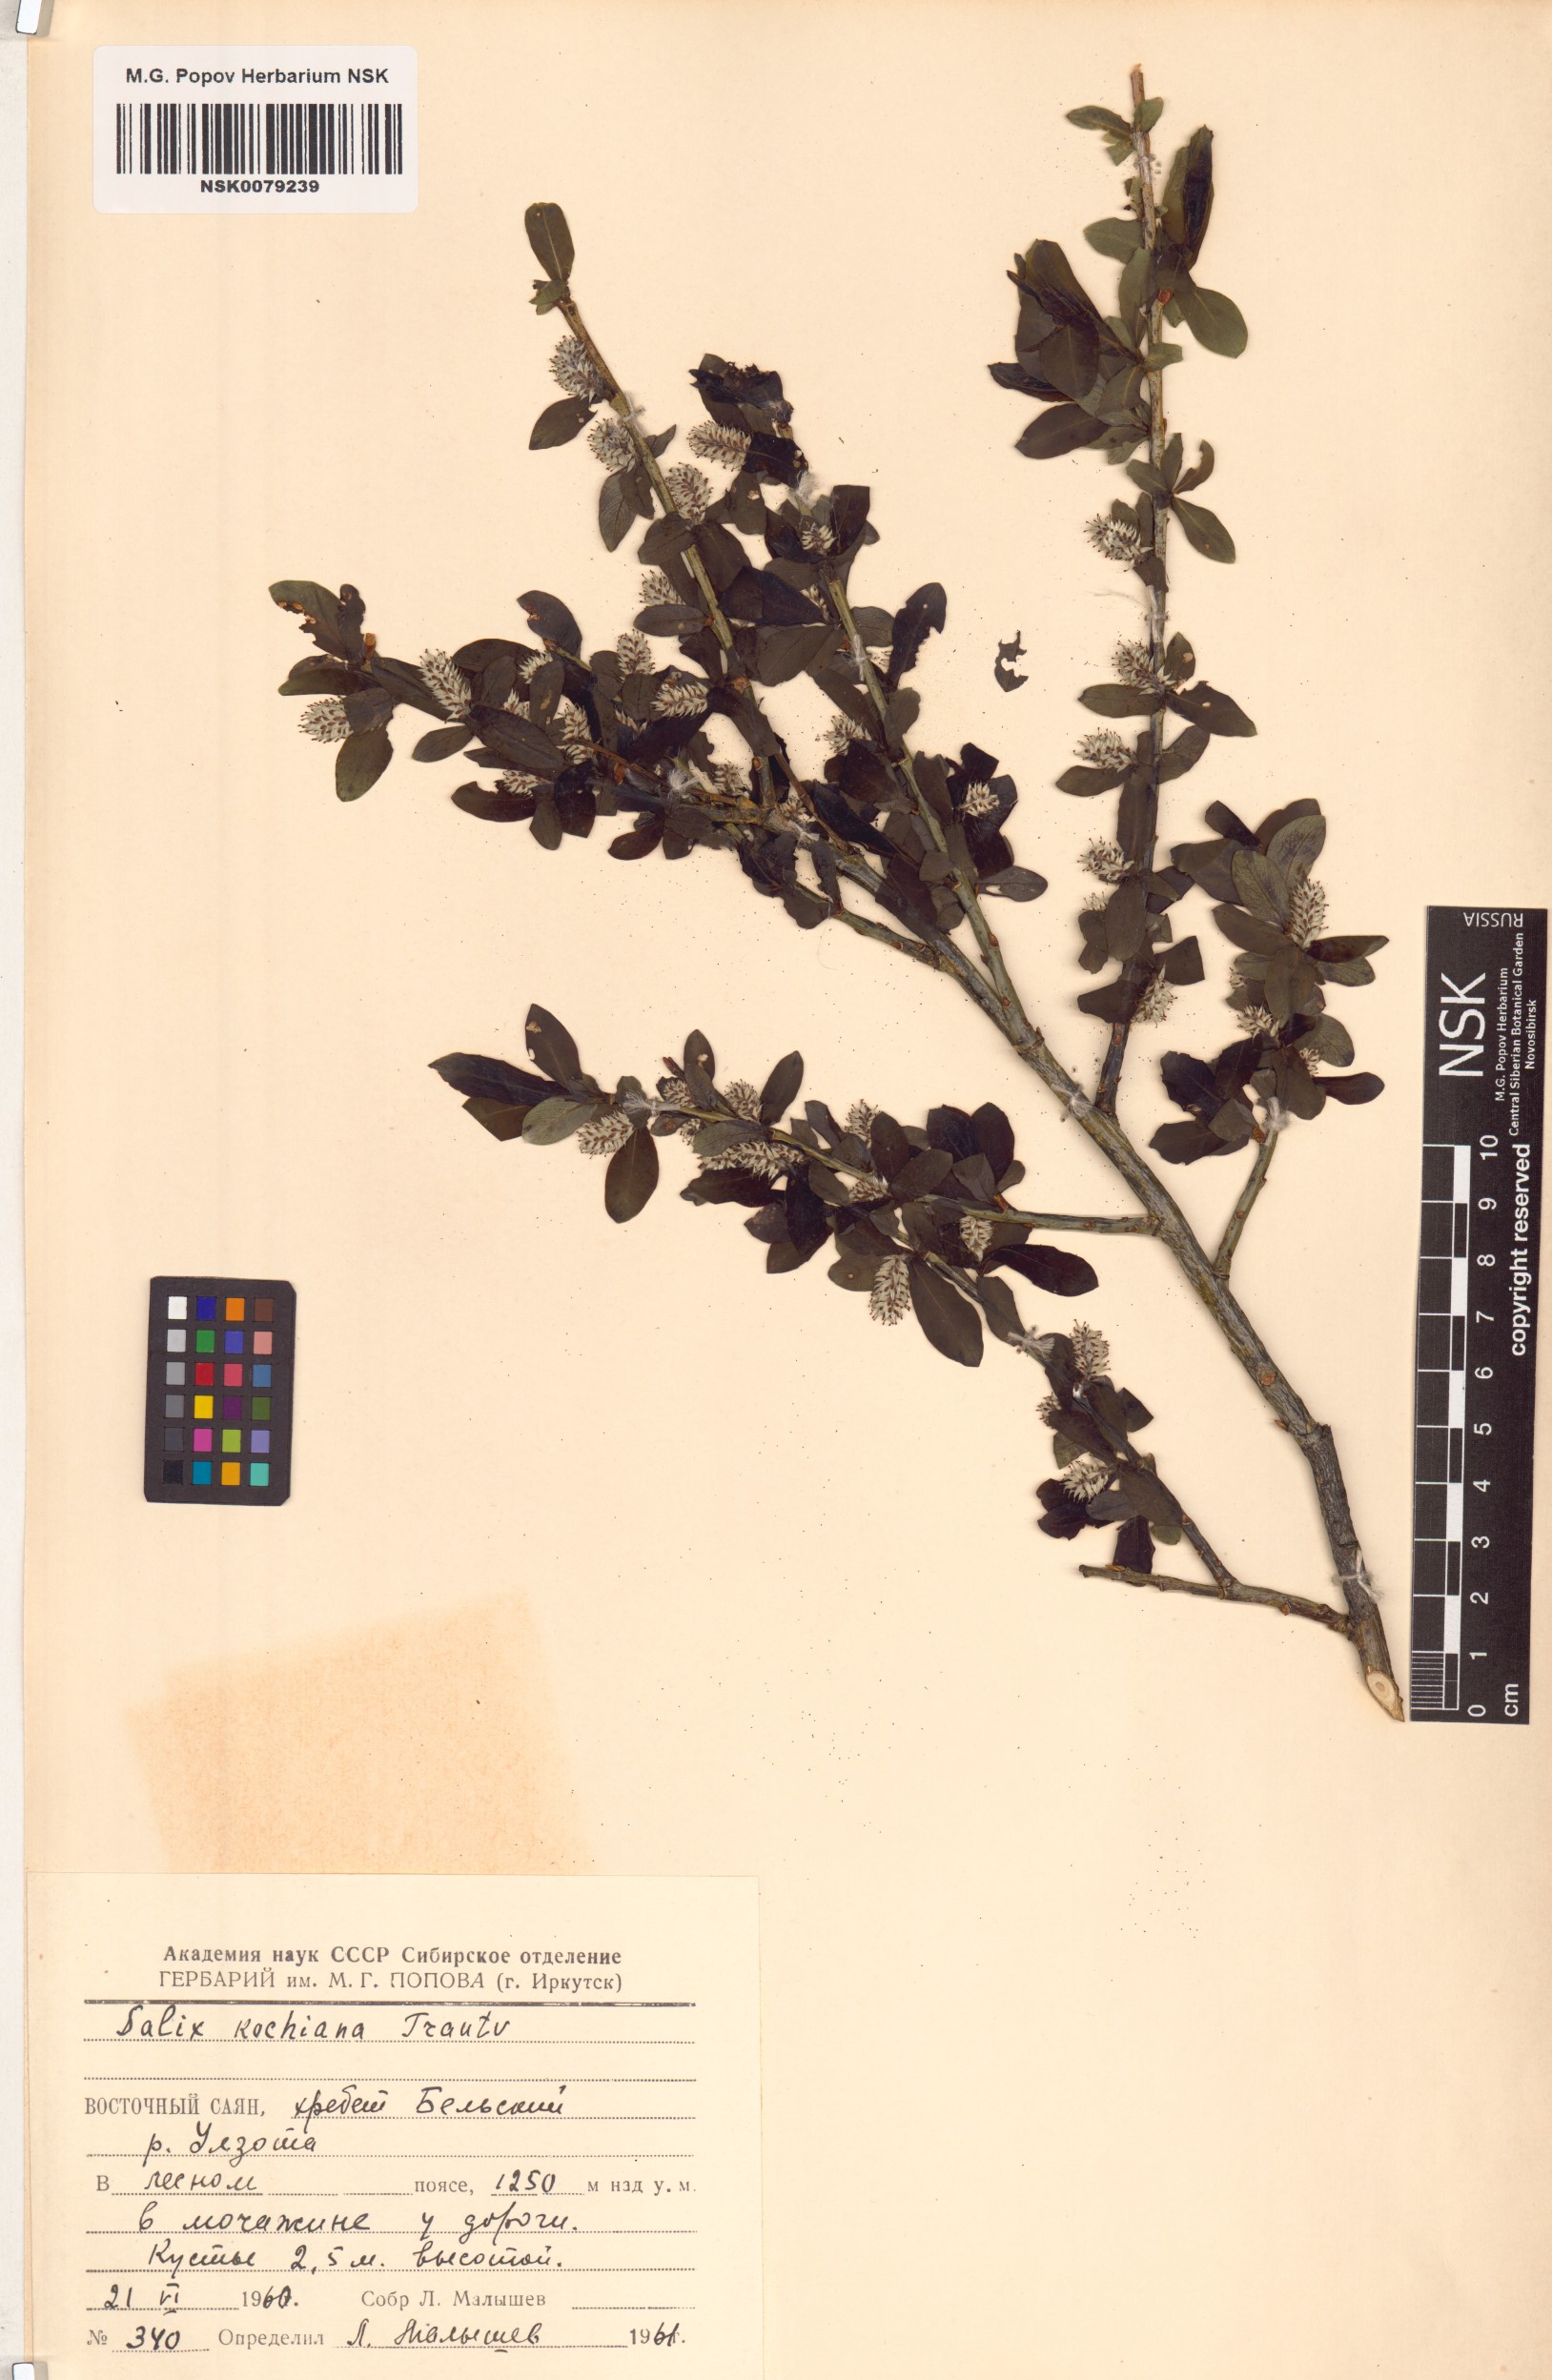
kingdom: Plantae
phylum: Tracheophyta
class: Magnoliopsida
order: Malpighiales
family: Salicaceae
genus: Salix
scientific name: Salix kochiana
